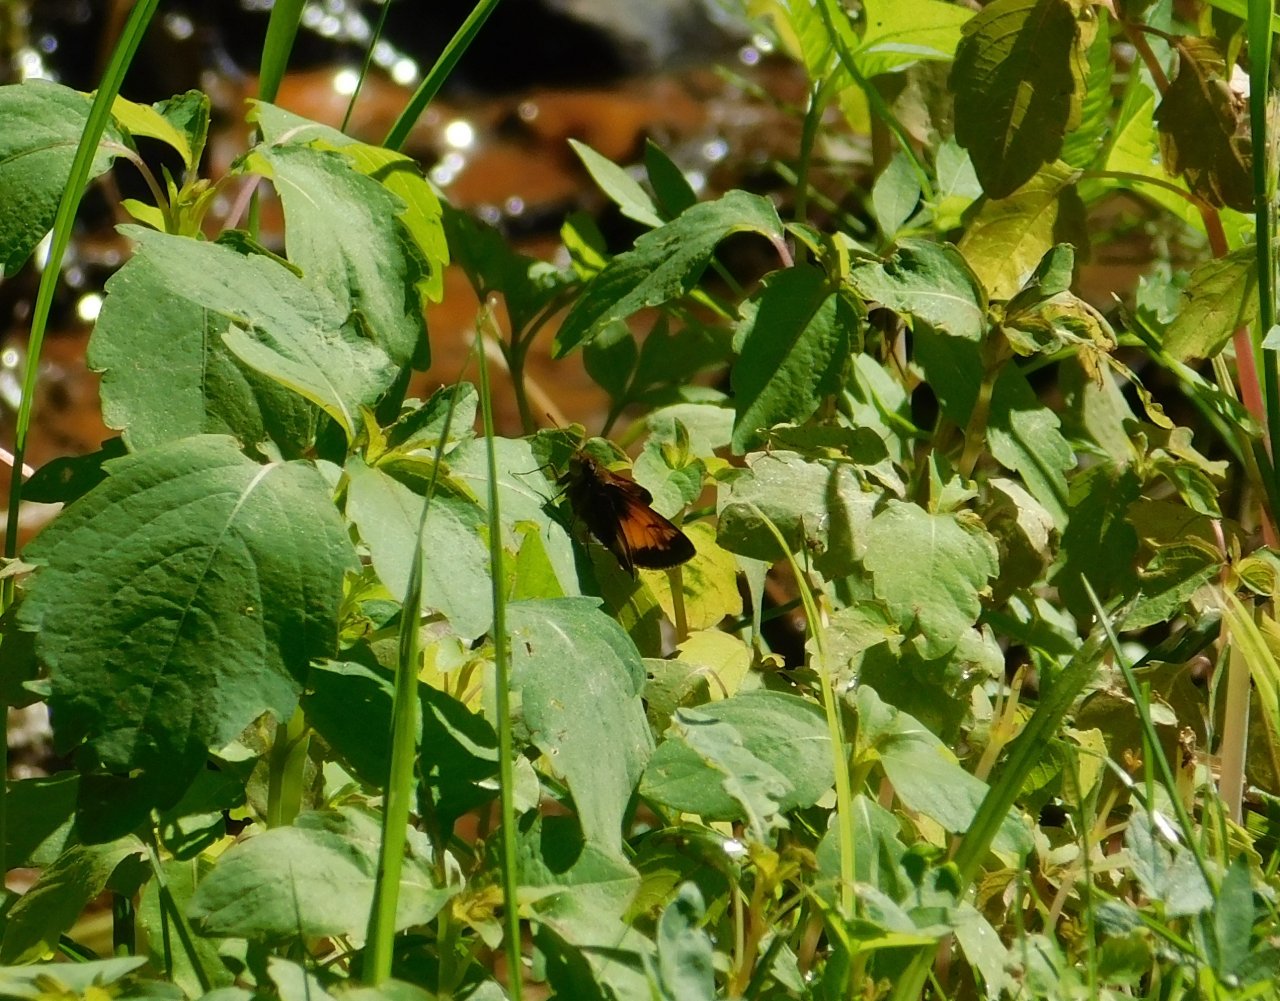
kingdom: Animalia
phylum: Arthropoda
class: Insecta
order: Lepidoptera
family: Hesperiidae
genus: Lon
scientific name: Lon hobomok
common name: Hobomok Skipper
